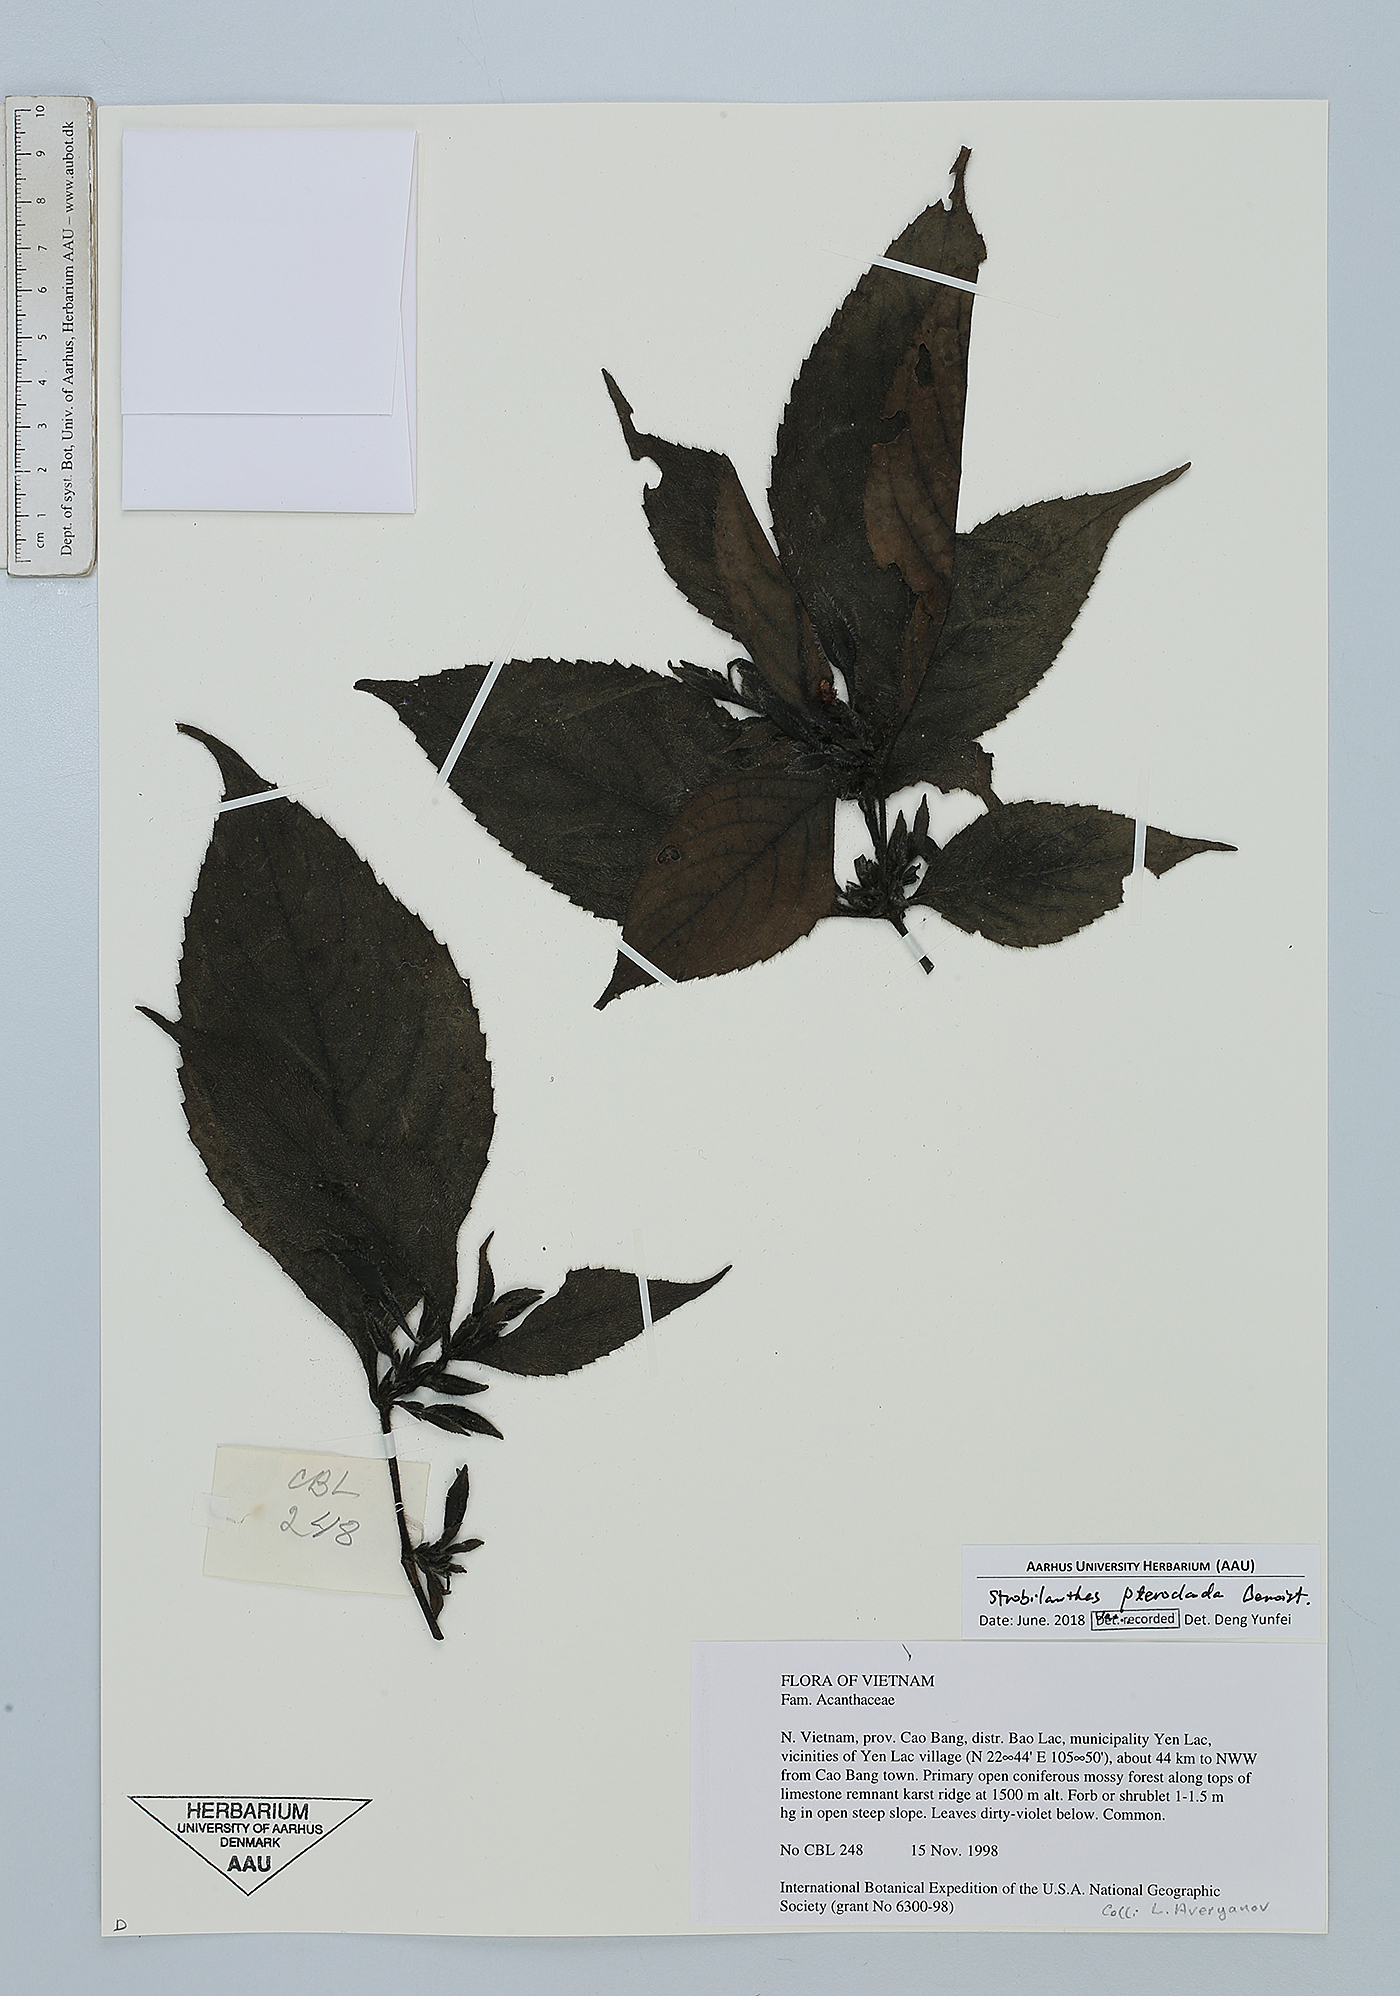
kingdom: Plantae
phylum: Tracheophyta
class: Magnoliopsida
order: Lamiales
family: Acanthaceae
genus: Strobilanthes
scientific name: Strobilanthes pteroclada
